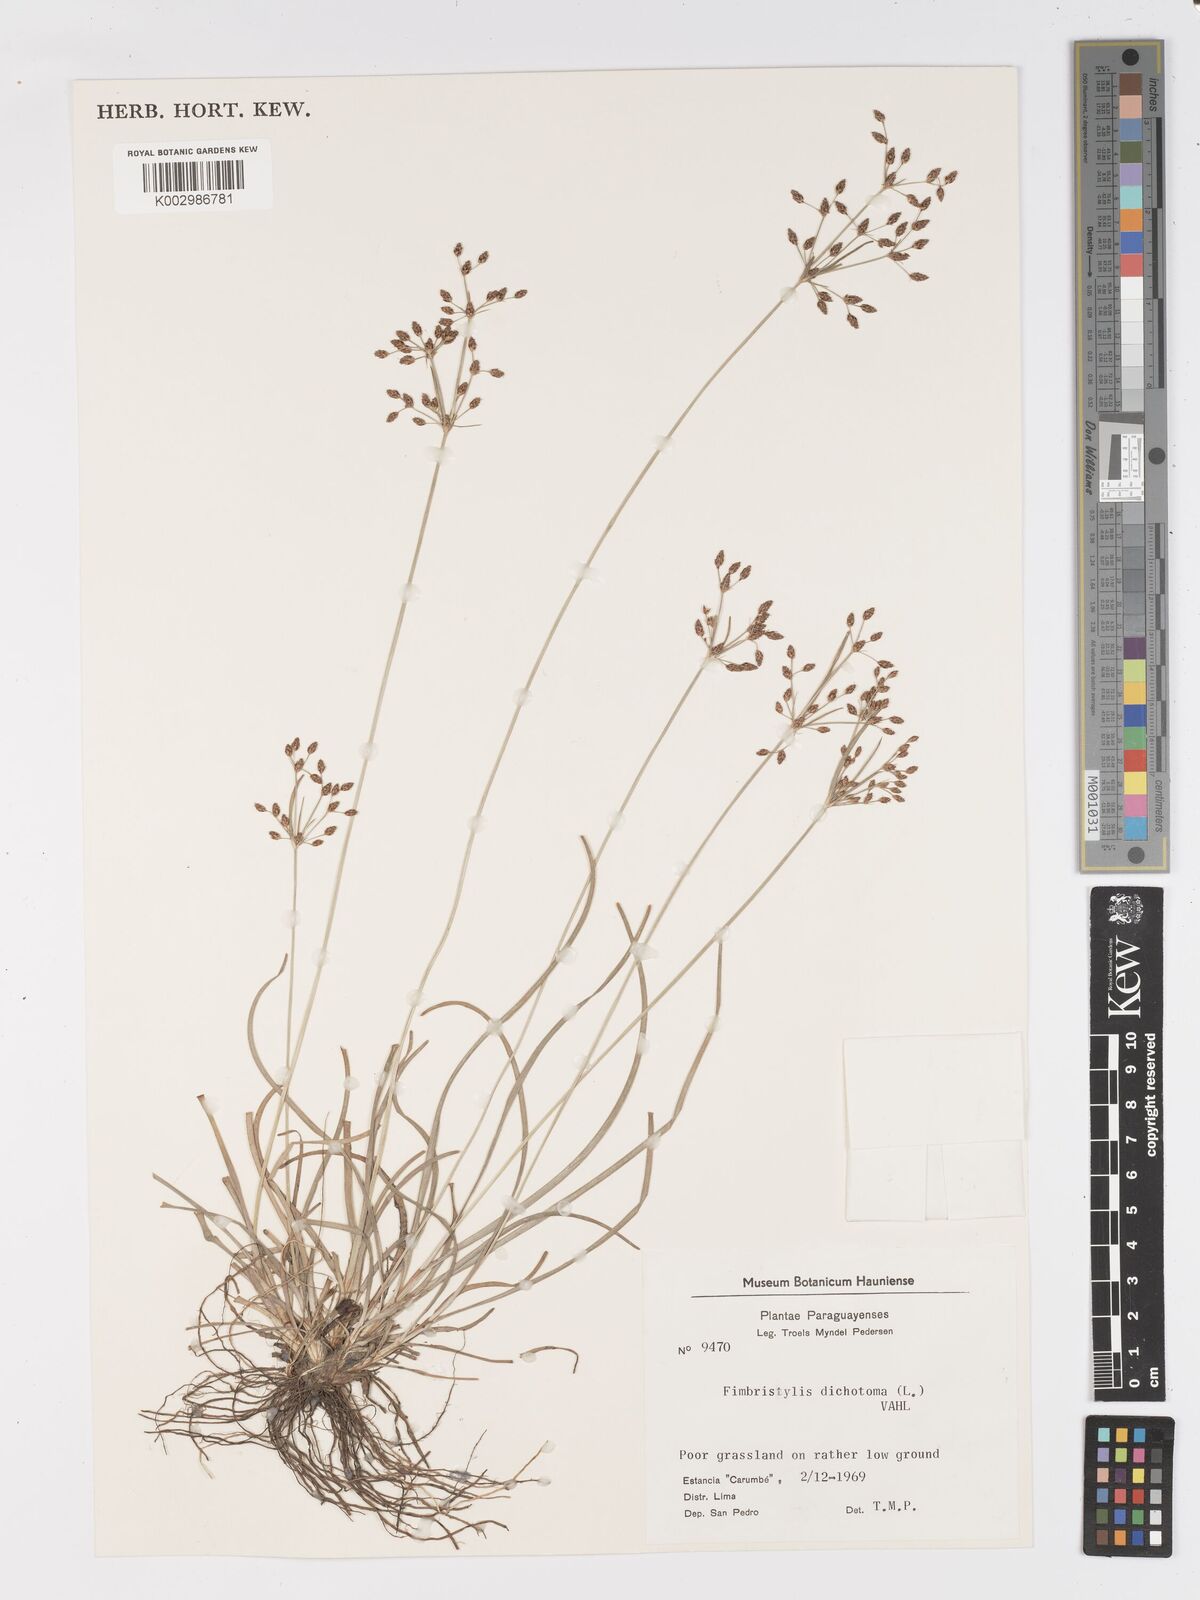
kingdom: Plantae
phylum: Tracheophyta
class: Liliopsida
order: Poales
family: Cyperaceae
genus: Fimbristylis
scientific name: Fimbristylis dichotoma
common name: Forked fimbry
